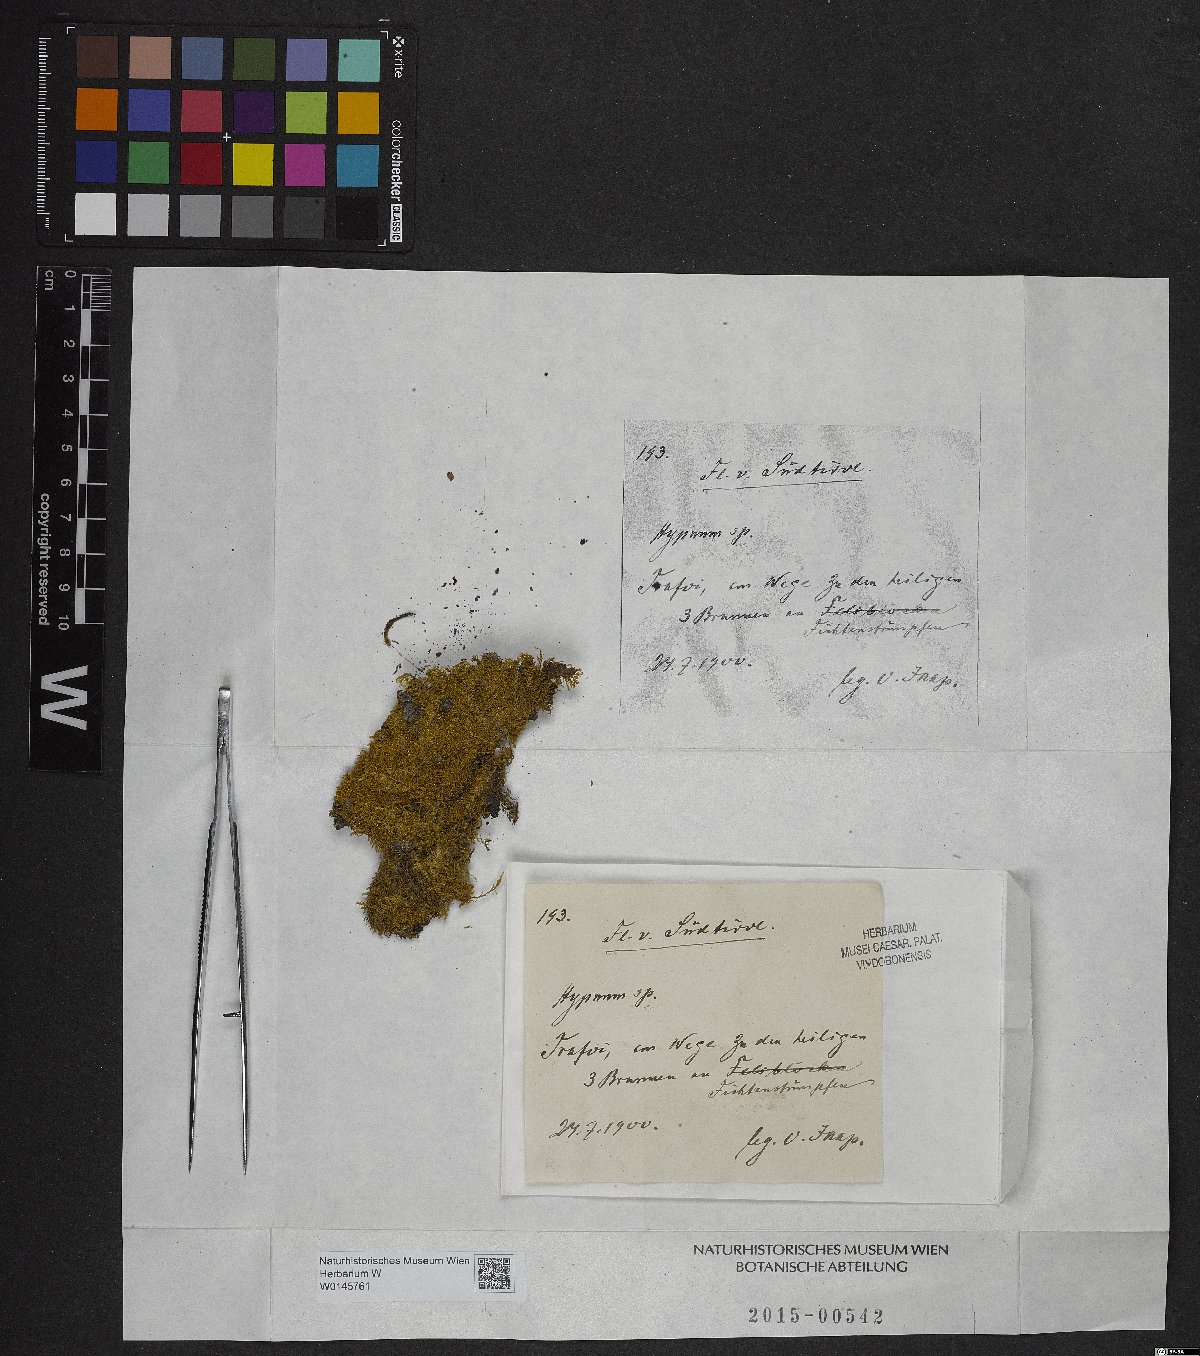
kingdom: Plantae
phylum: Bryophyta
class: Bryopsida
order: Hypnales
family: Hypnaceae
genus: Hypnum
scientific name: Hypnum
